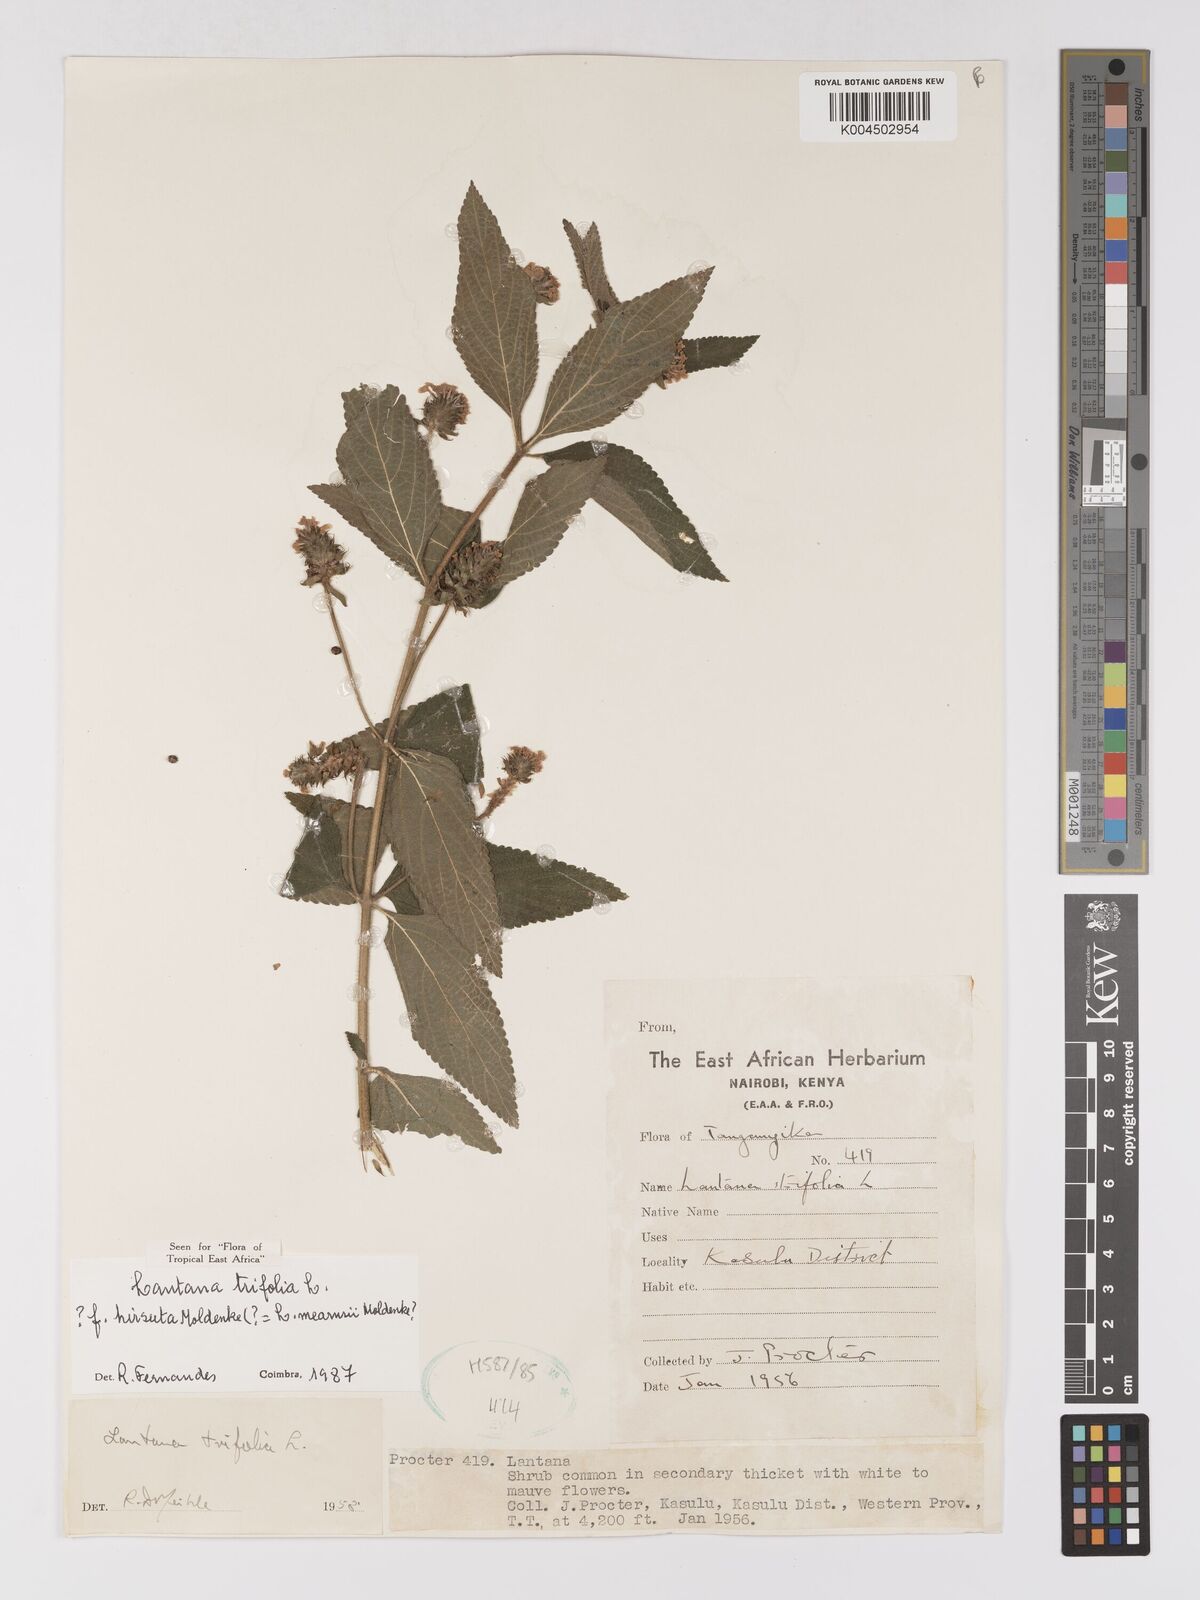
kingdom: Plantae
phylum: Tracheophyta
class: Magnoliopsida
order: Lamiales
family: Verbenaceae
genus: Lantana
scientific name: Lantana trifolia
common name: Sweet-sage
